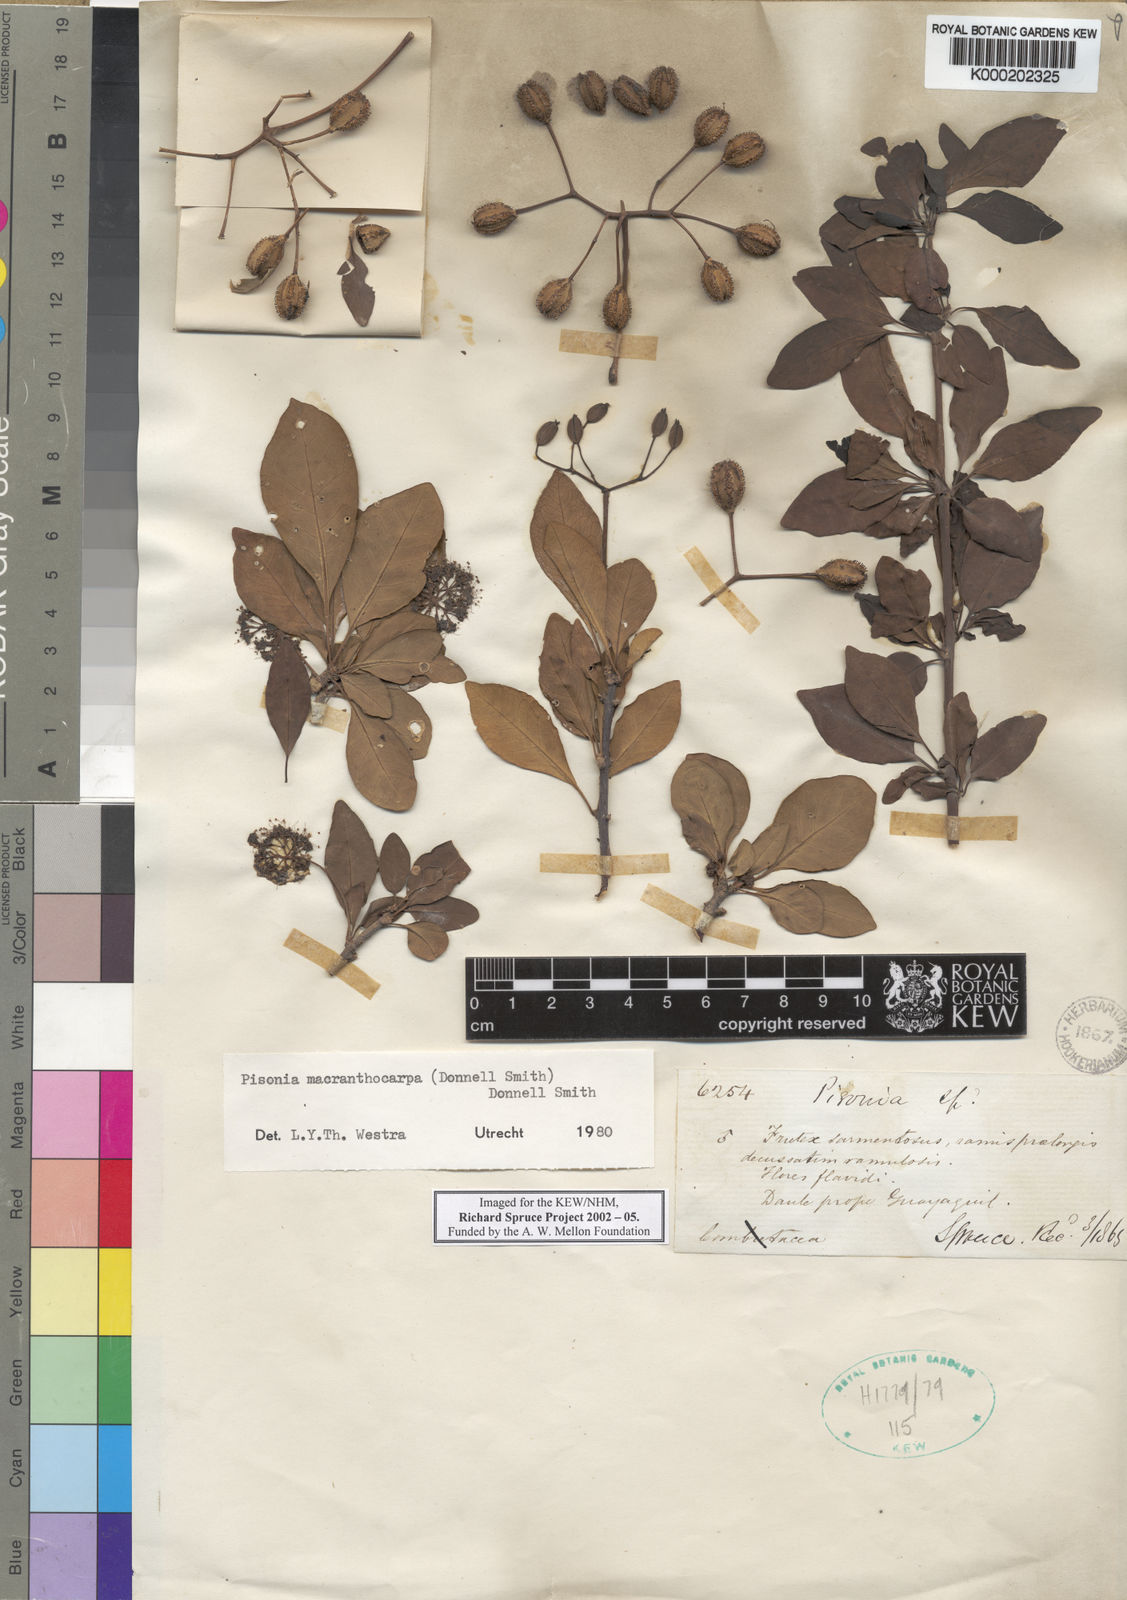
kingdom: Plantae
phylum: Tracheophyta
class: Magnoliopsida
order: Caryophyllales
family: Nyctaginaceae
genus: Pisonia
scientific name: Pisonia macranthocarpa
